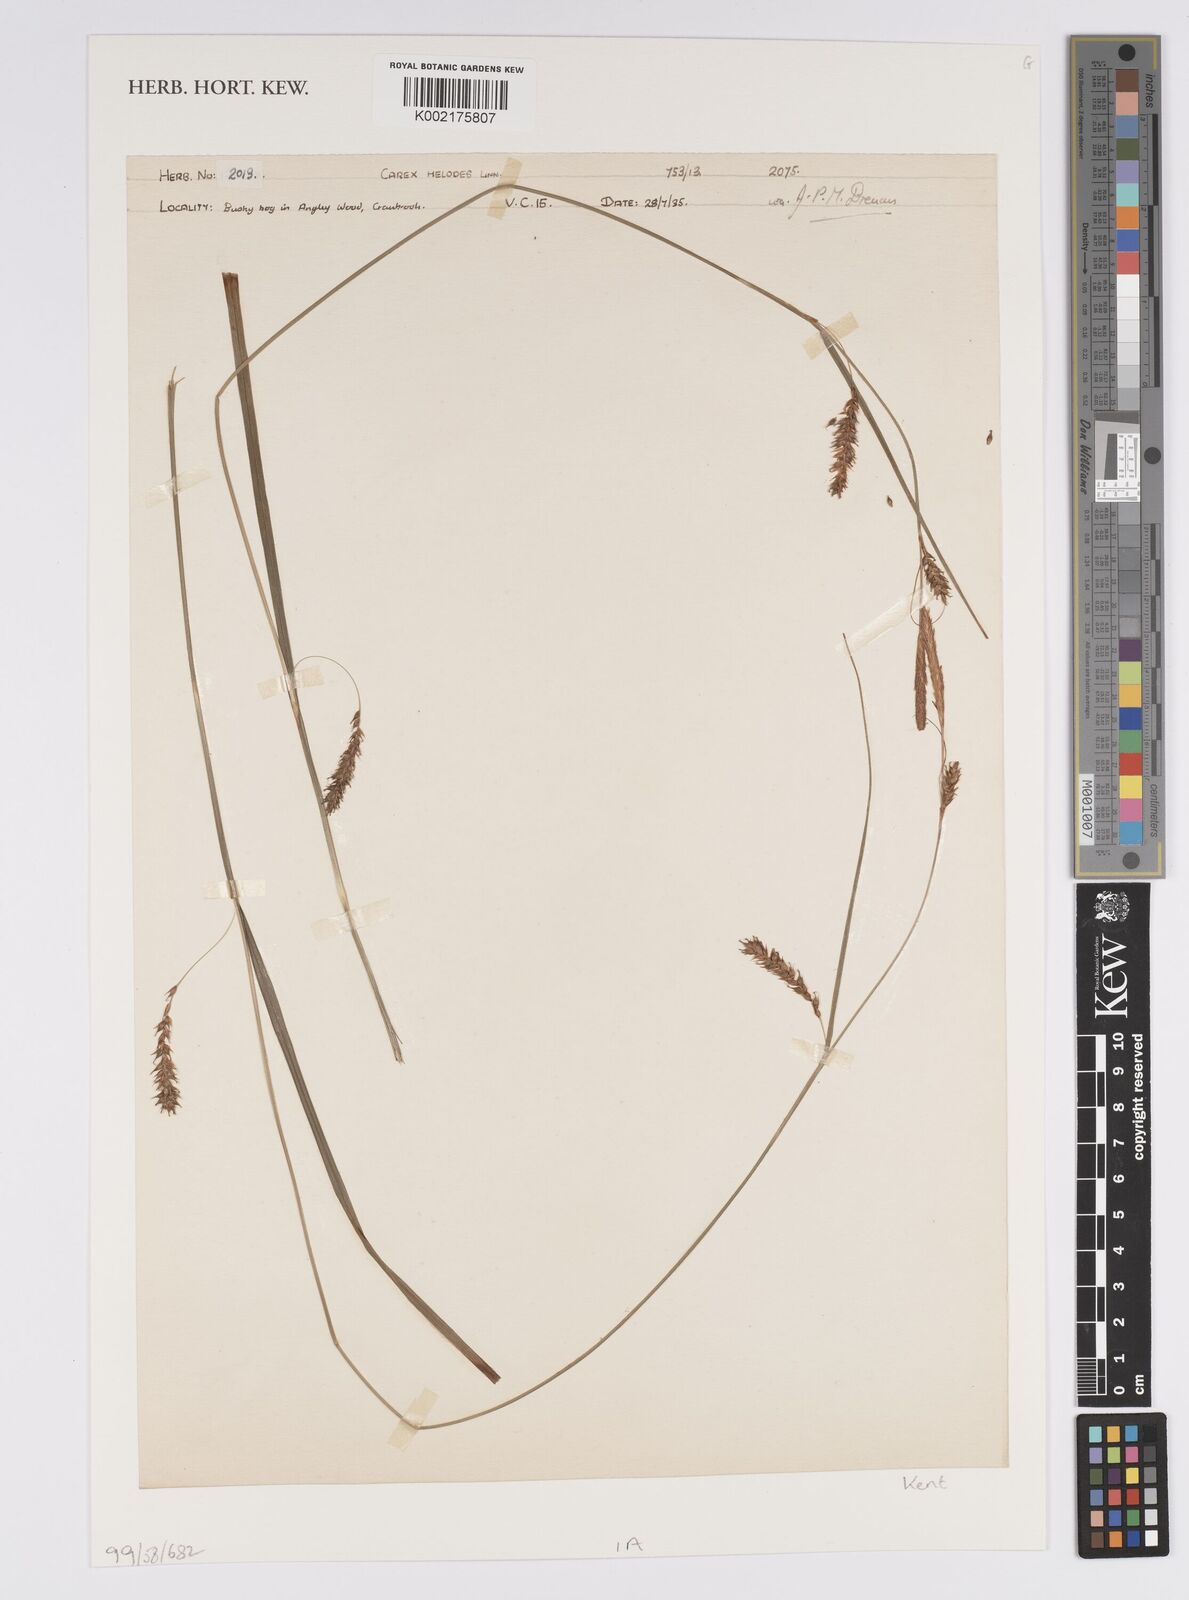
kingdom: Plantae
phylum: Tracheophyta
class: Liliopsida
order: Poales
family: Cyperaceae
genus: Carex
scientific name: Carex laevigata
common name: Smooth-stalked sedge
